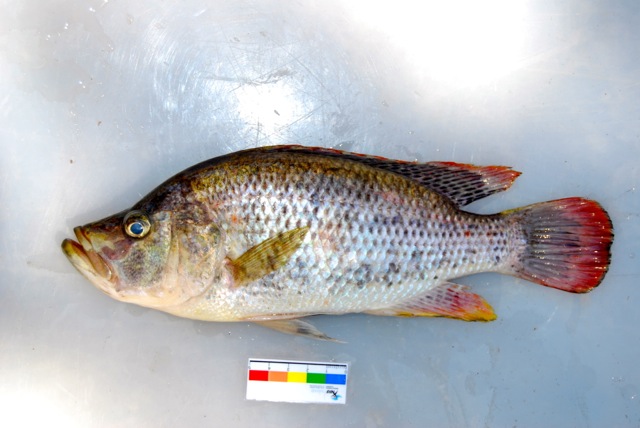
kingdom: Animalia
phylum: Chordata
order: Perciformes
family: Cichlidae
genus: Serranochromis
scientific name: Serranochromis altus
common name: Humpback largemouth
